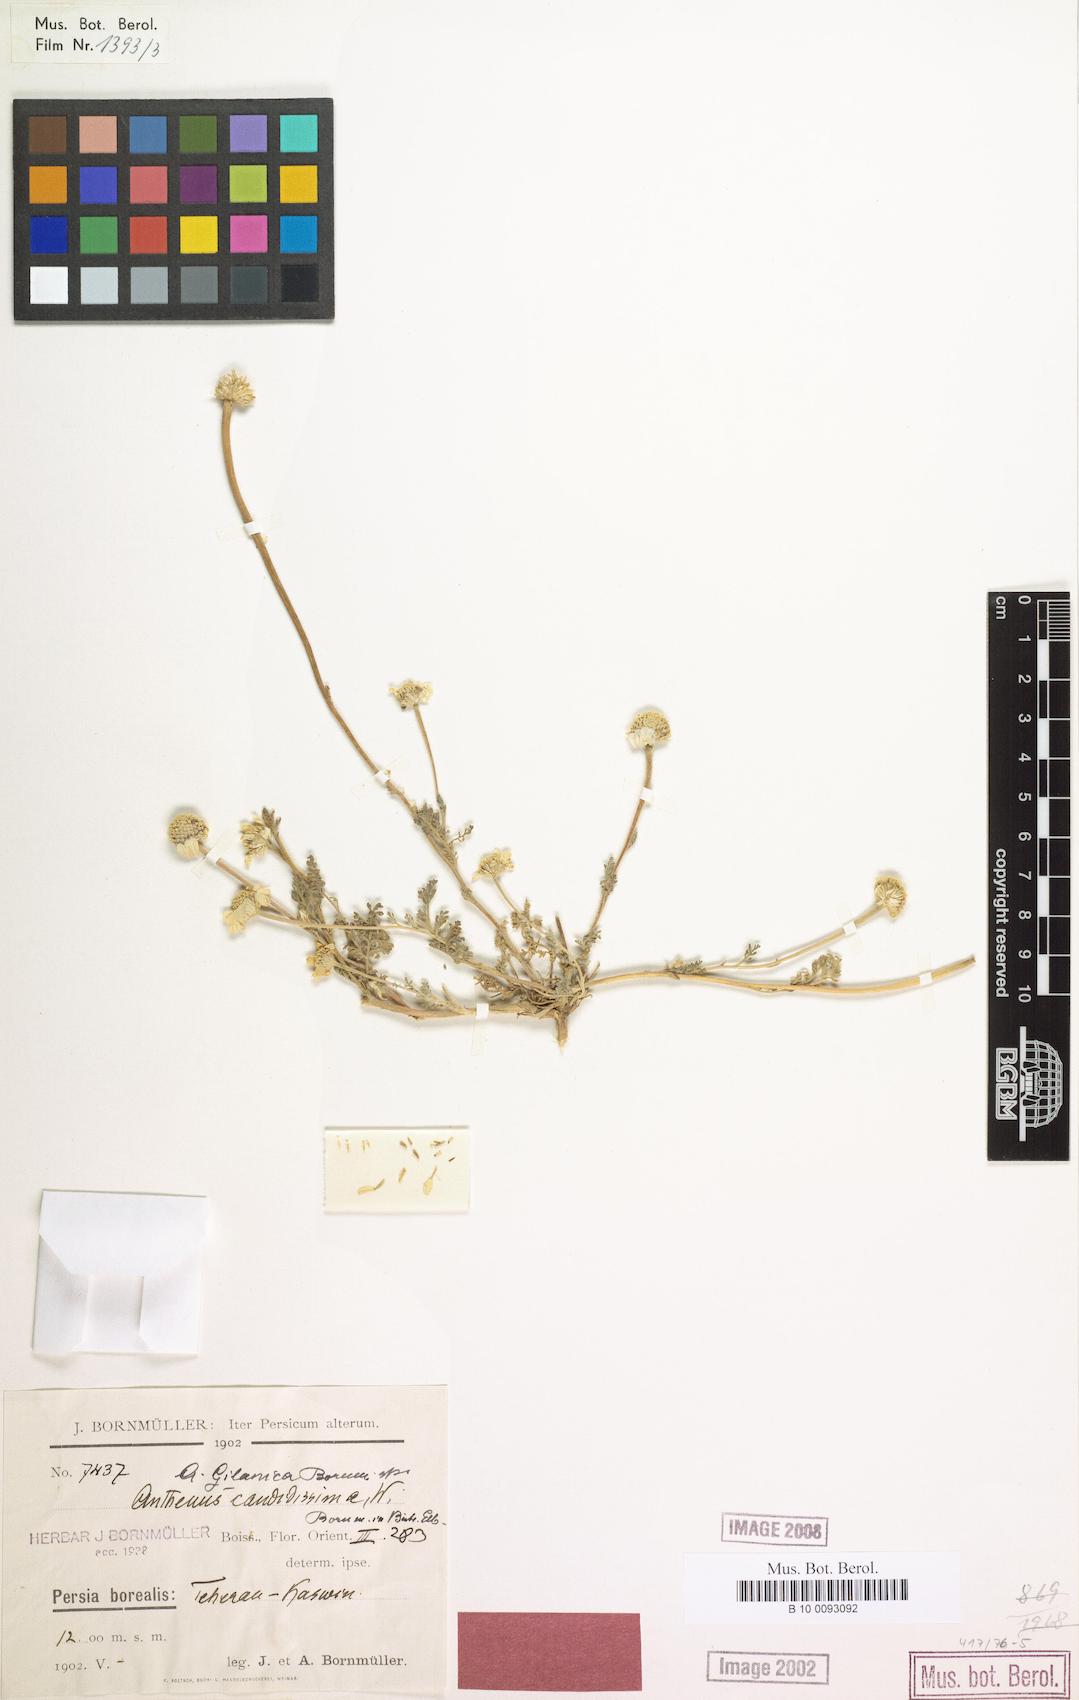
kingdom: Plantae
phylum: Tracheophyta
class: Magnoliopsida
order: Asterales
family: Asteraceae
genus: Anthemis
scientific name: Anthemis gilanica
